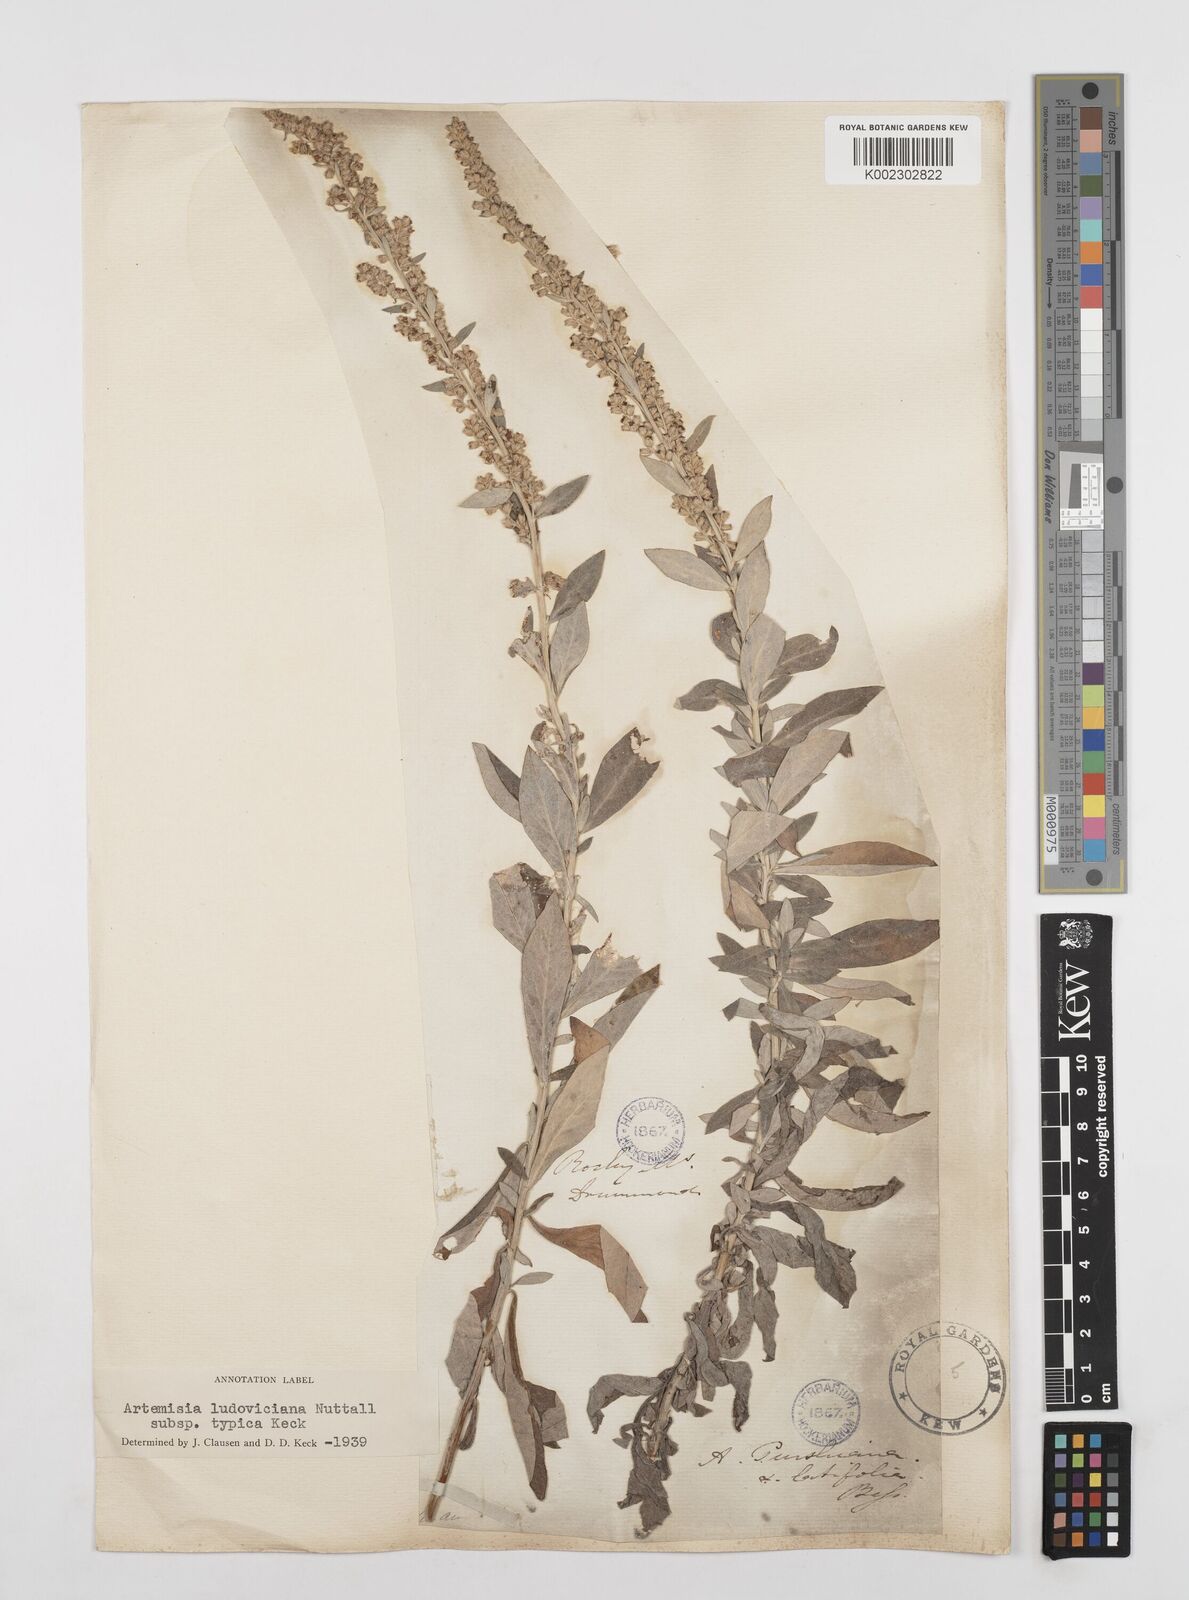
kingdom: Plantae
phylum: Tracheophyta
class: Magnoliopsida
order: Asterales
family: Asteraceae
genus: Artemisia
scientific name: Artemisia ludoviciana
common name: Western mugwort
